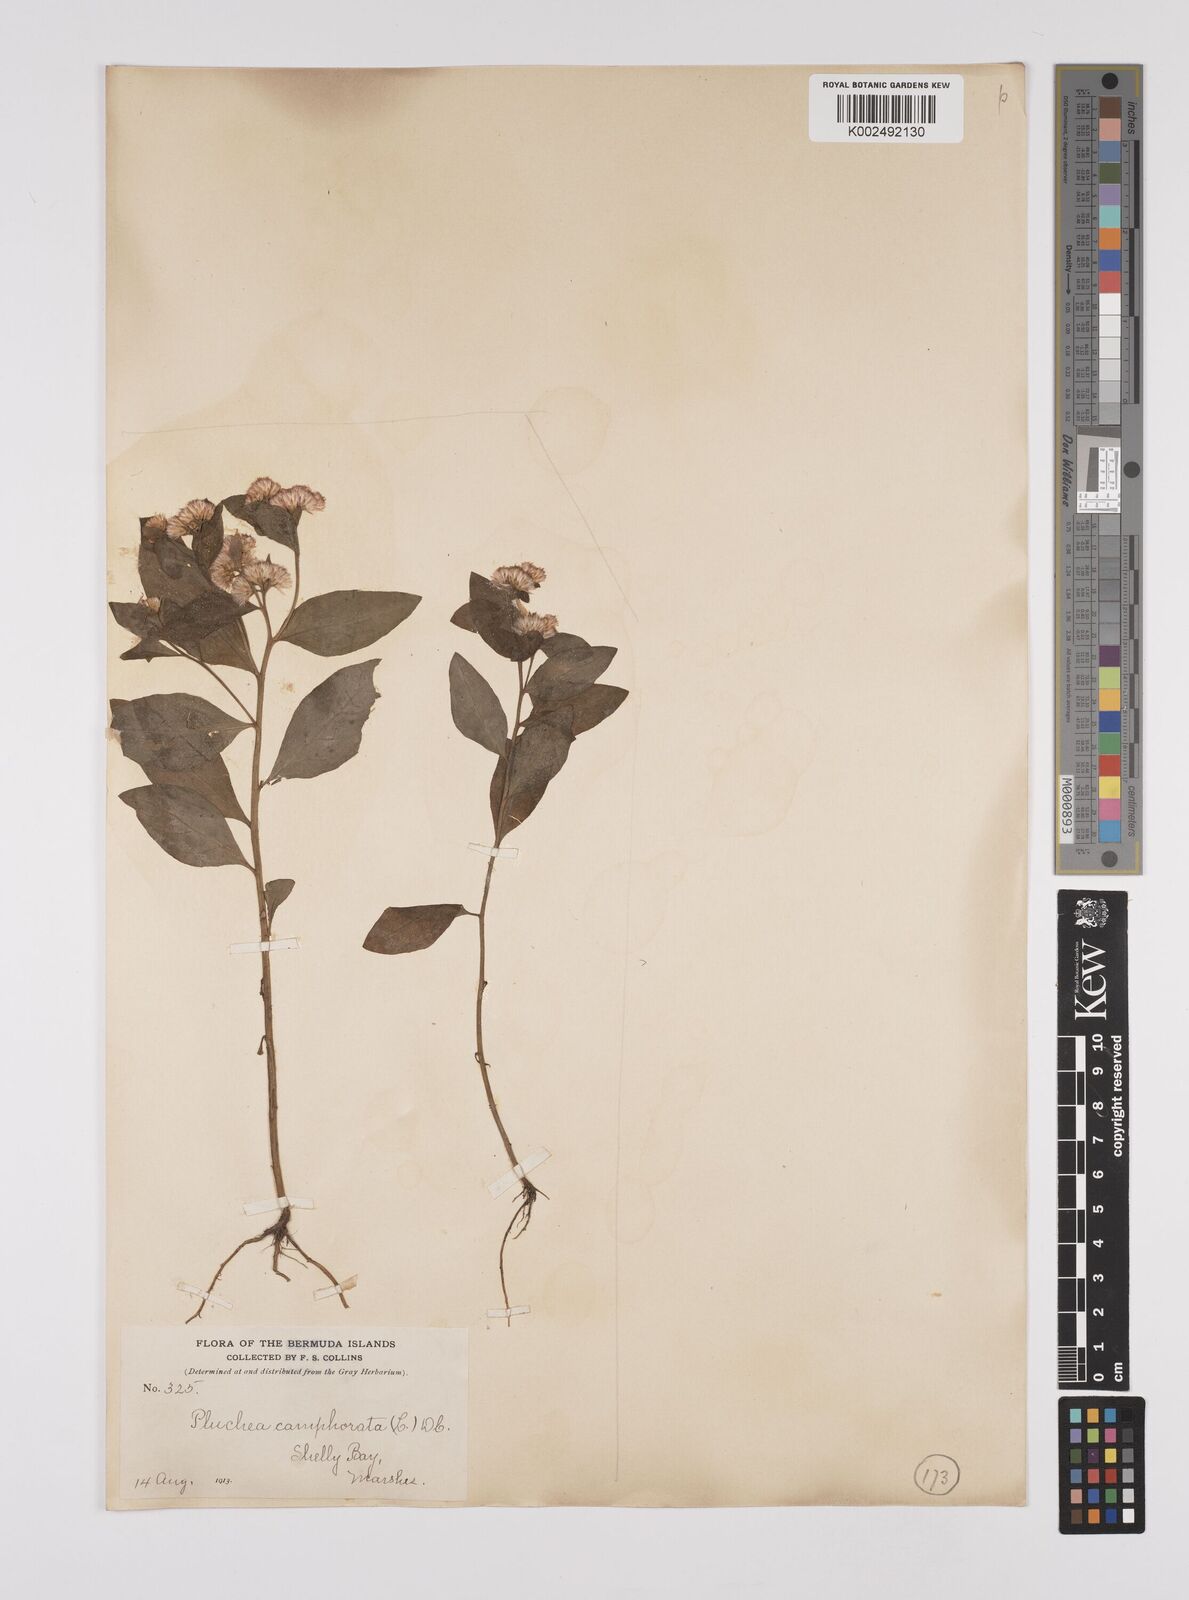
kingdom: Plantae
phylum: Tracheophyta
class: Magnoliopsida
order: Asterales
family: Asteraceae
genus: Pluchea
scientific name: Pluchea
